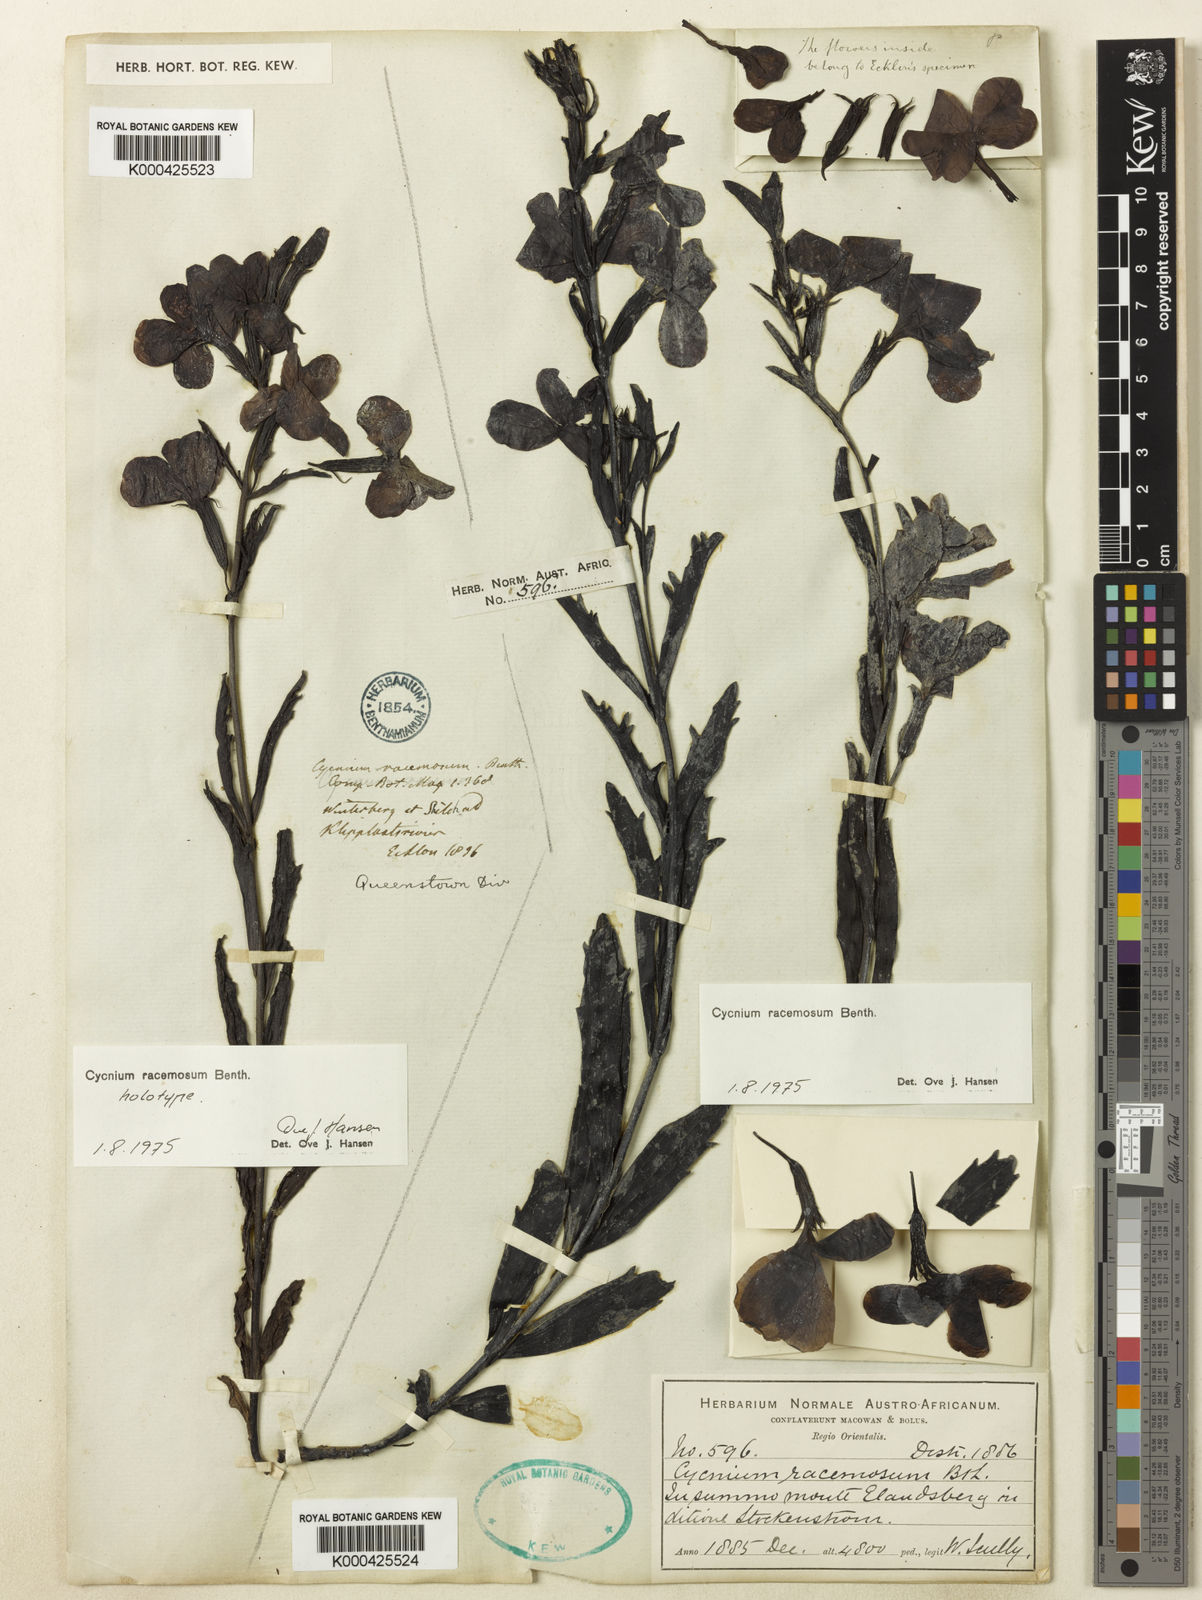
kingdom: Plantae
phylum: Tracheophyta
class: Magnoliopsida
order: Lamiales
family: Orobanchaceae
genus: Cycnium
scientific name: Cycnium racemosum
